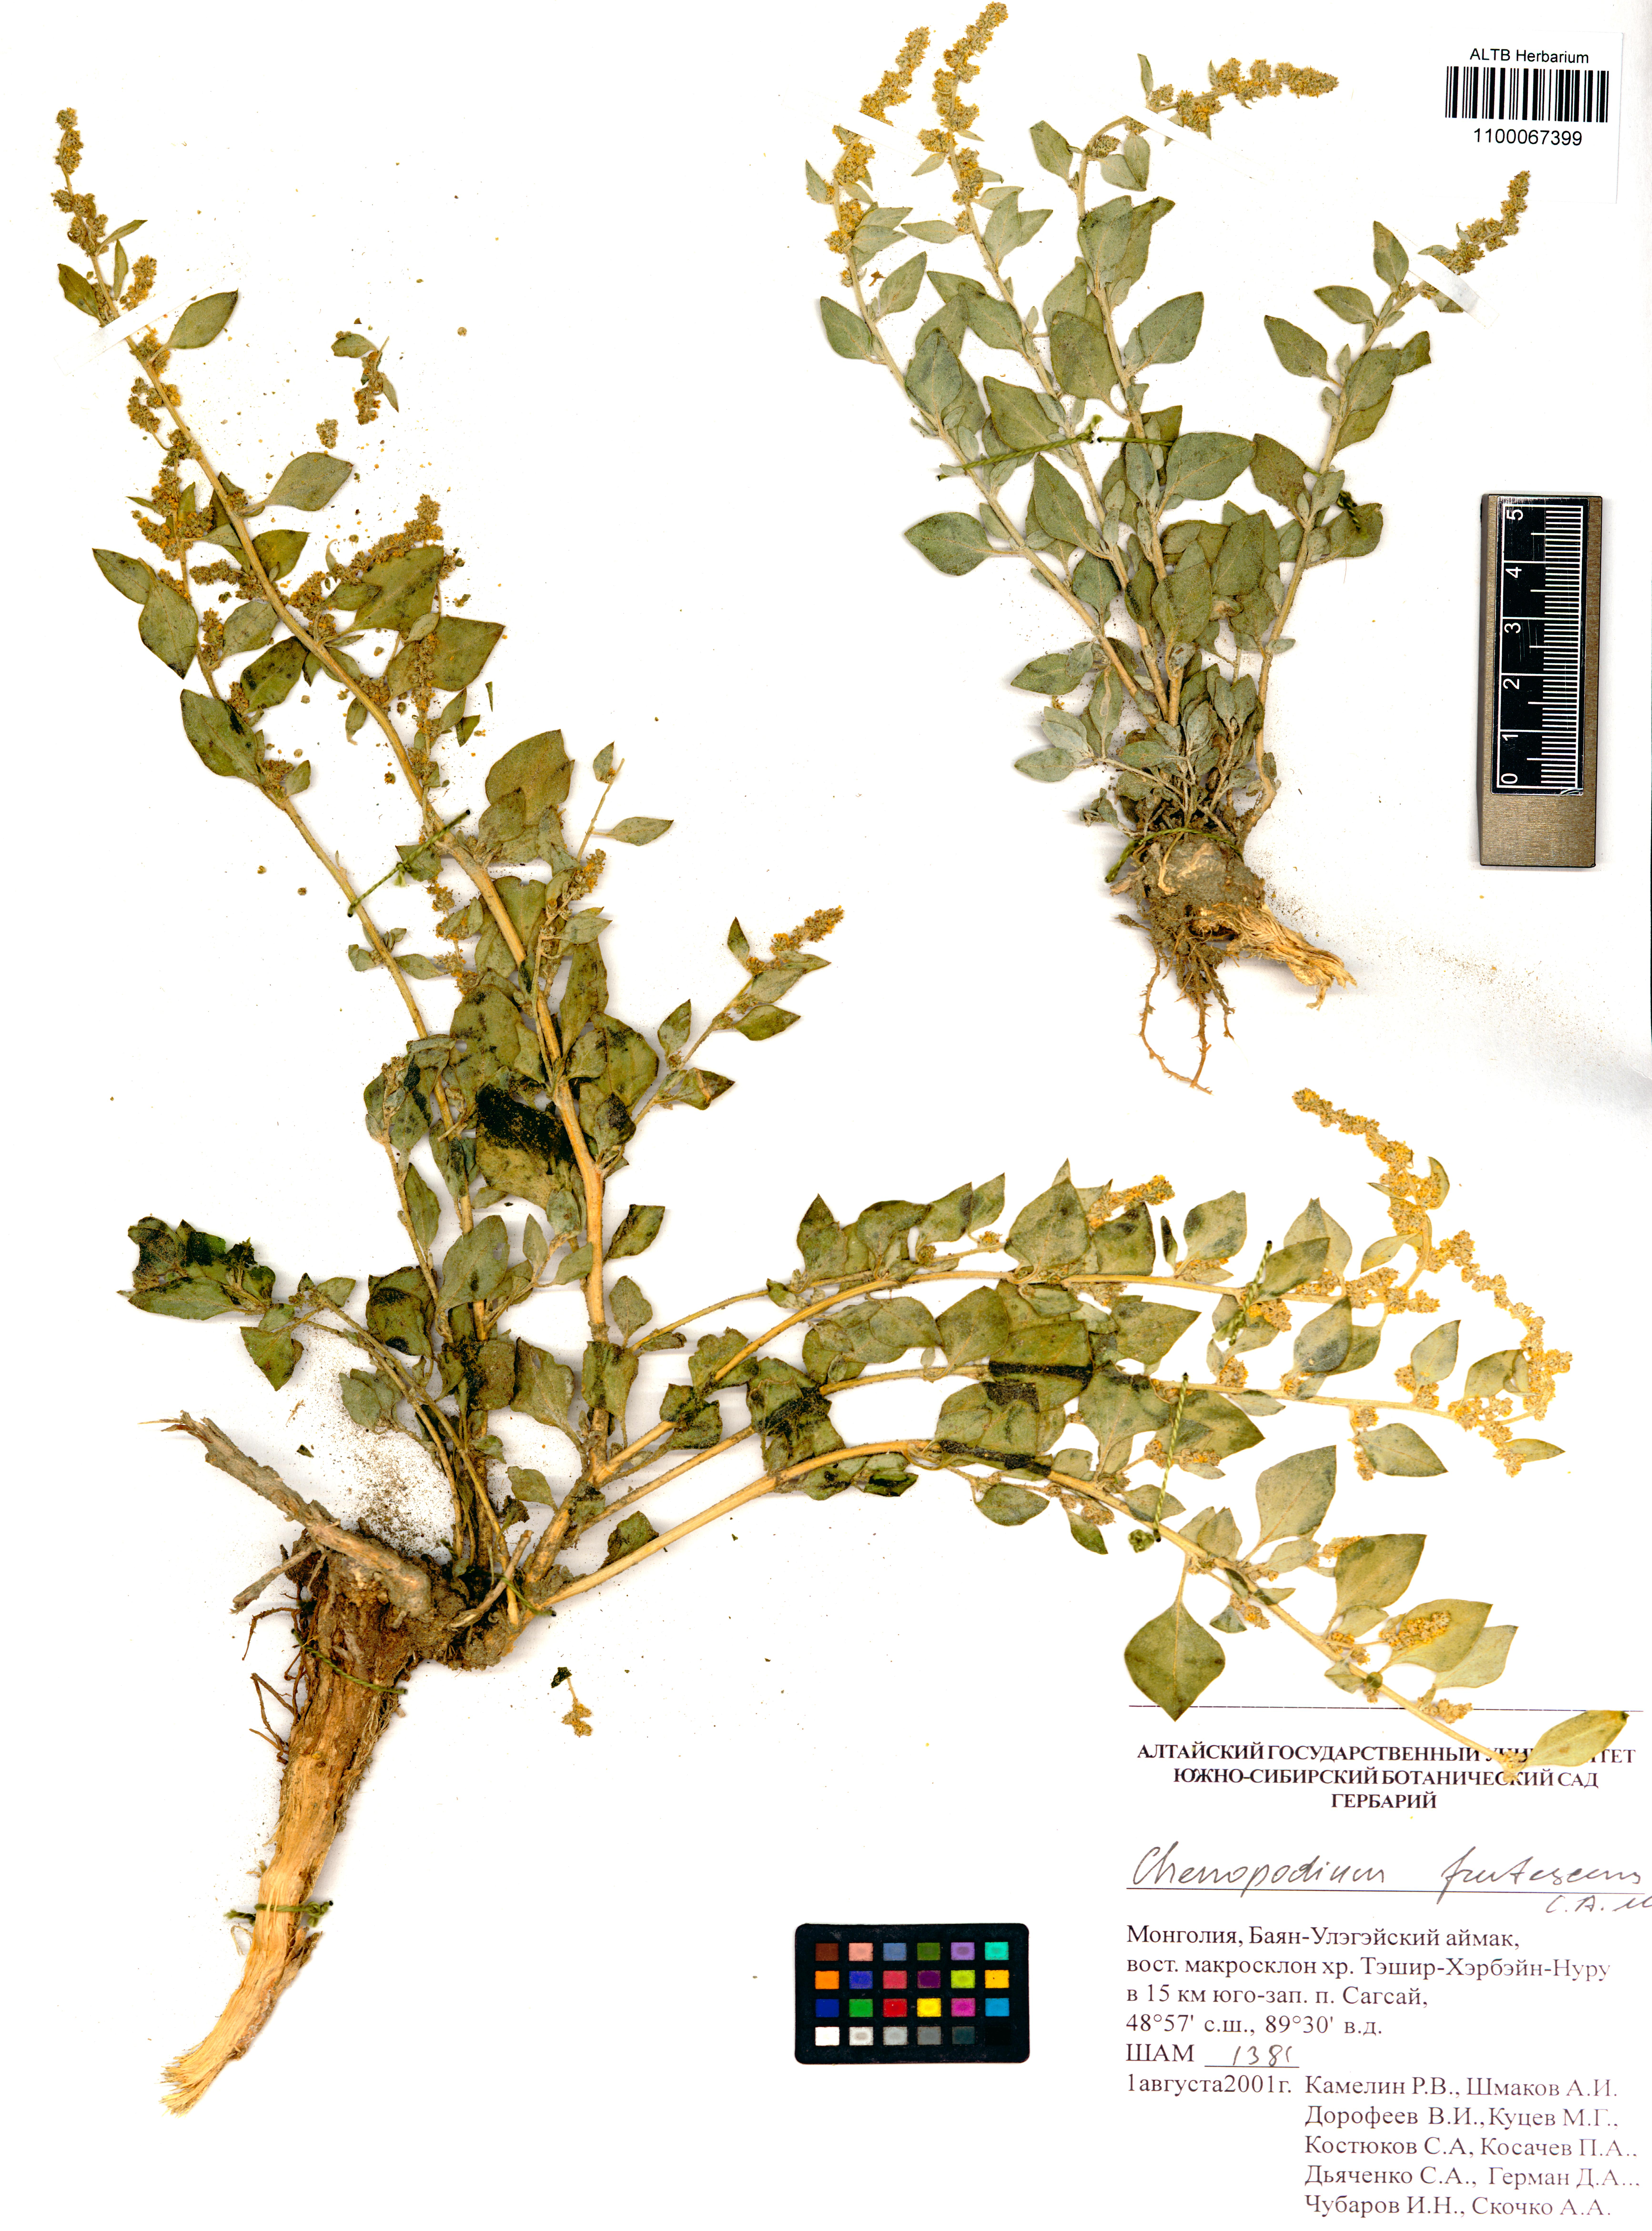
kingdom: Plantae
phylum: Tracheophyta
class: Magnoliopsida
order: Caryophyllales
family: Amaranthaceae
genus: Chenopodium
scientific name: Chenopodium frutescens
